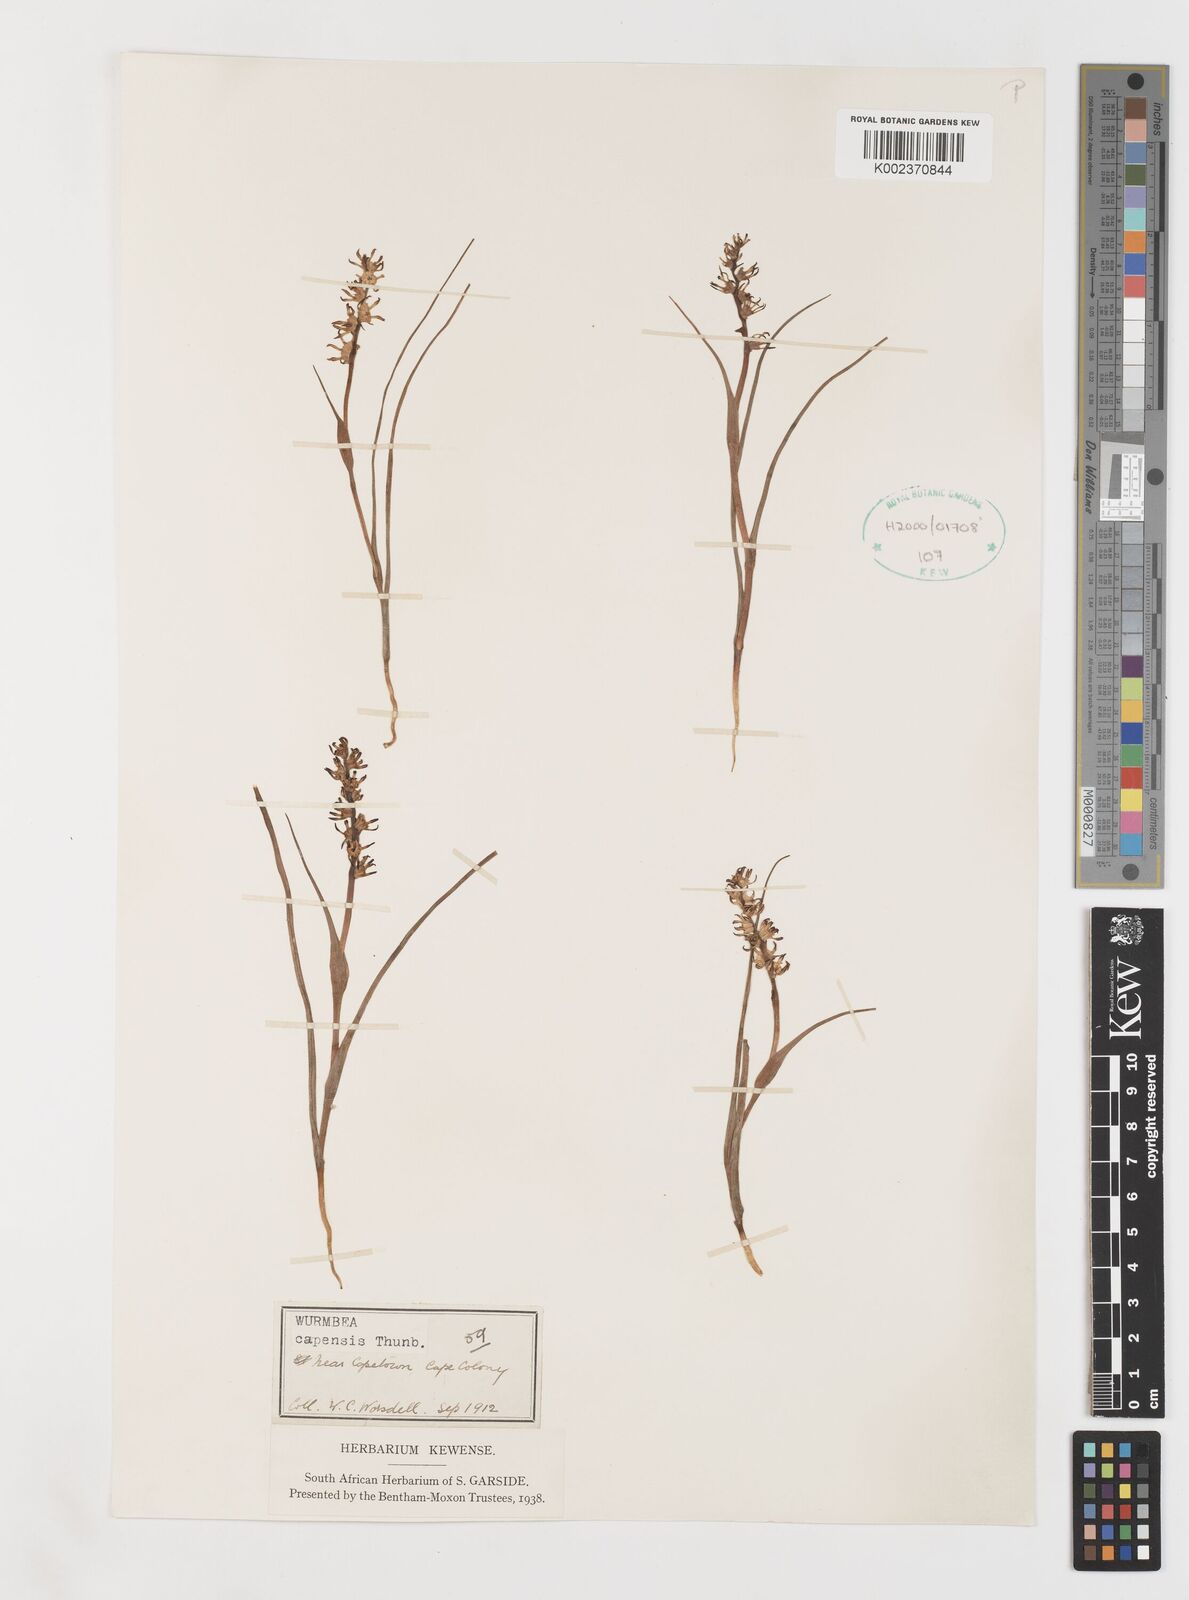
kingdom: Plantae
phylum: Tracheophyta
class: Liliopsida
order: Liliales
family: Colchicaceae
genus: Wurmbea
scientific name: Wurmbea capensis
